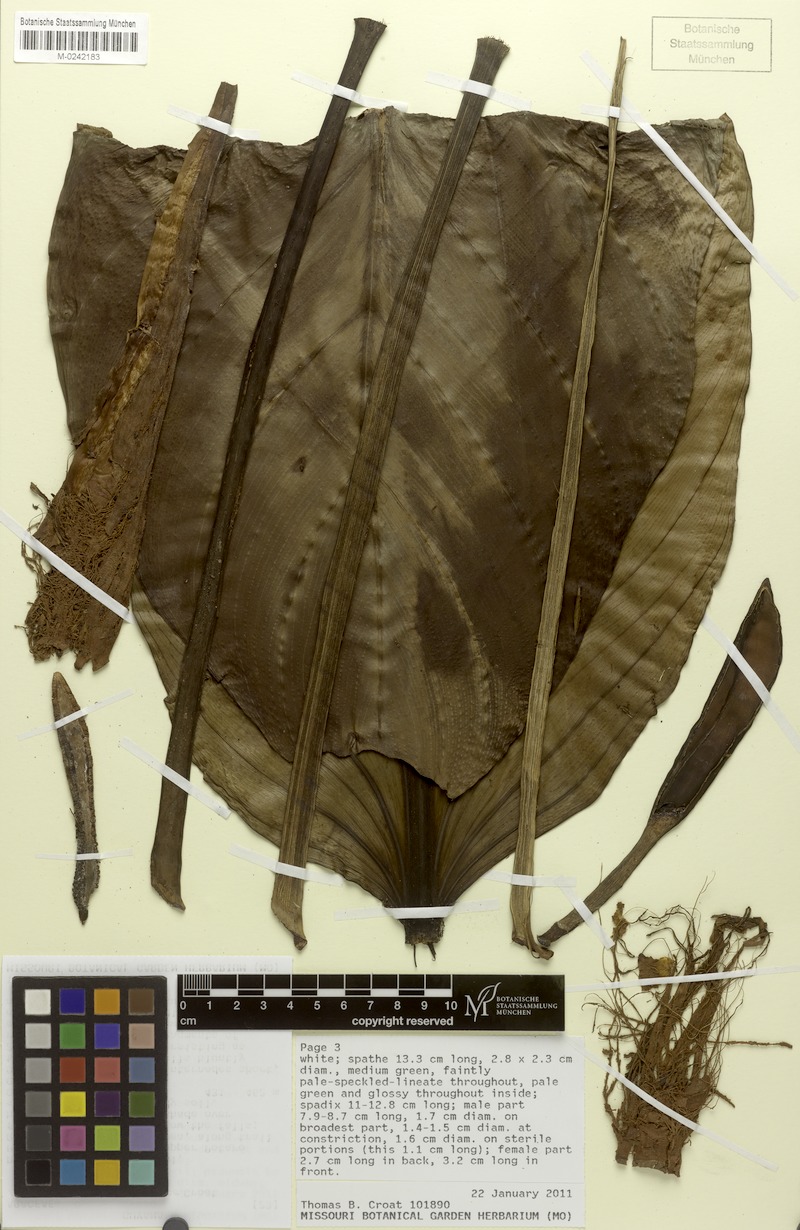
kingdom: Plantae
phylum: Tracheophyta
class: Liliopsida
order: Alismatales
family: Araceae
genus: Philodendron
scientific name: Philodendron kaieteurense
